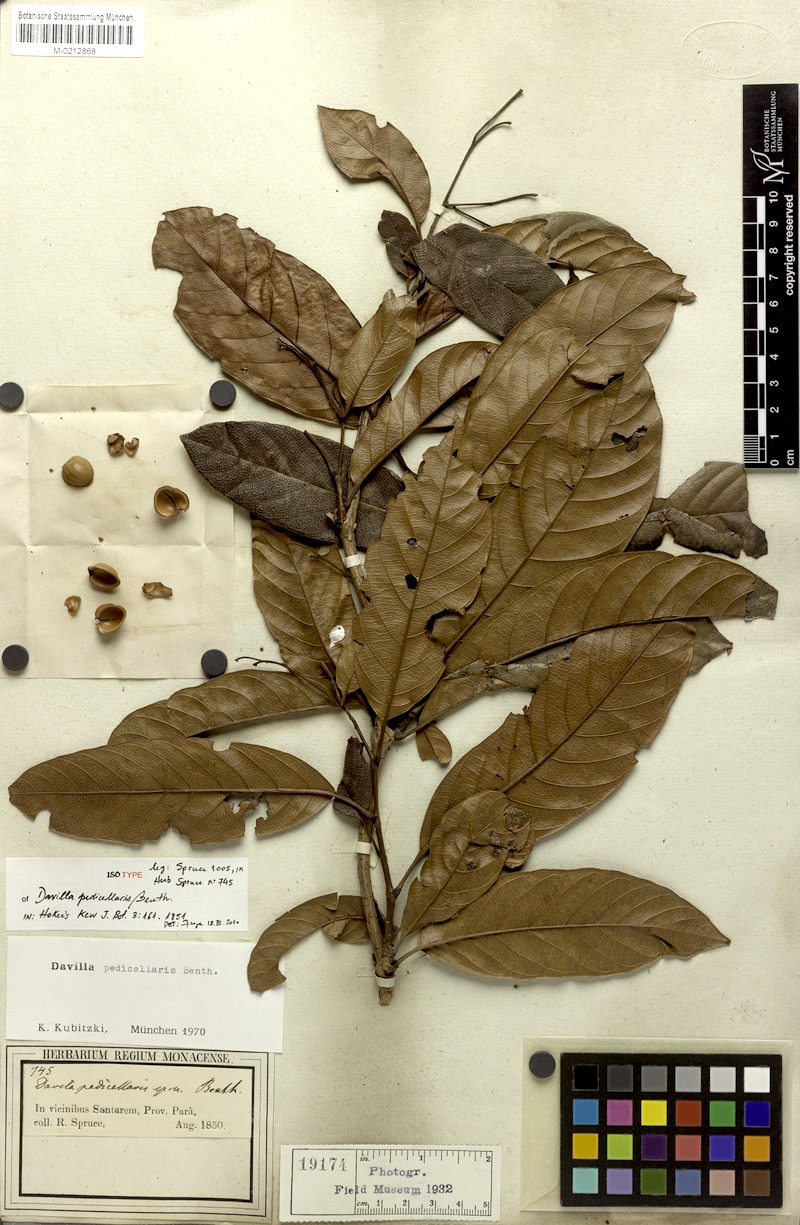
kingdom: Plantae
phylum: Tracheophyta
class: Magnoliopsida
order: Dilleniales
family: Dilleniaceae
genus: Davilla
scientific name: Davilla pedicellaris
